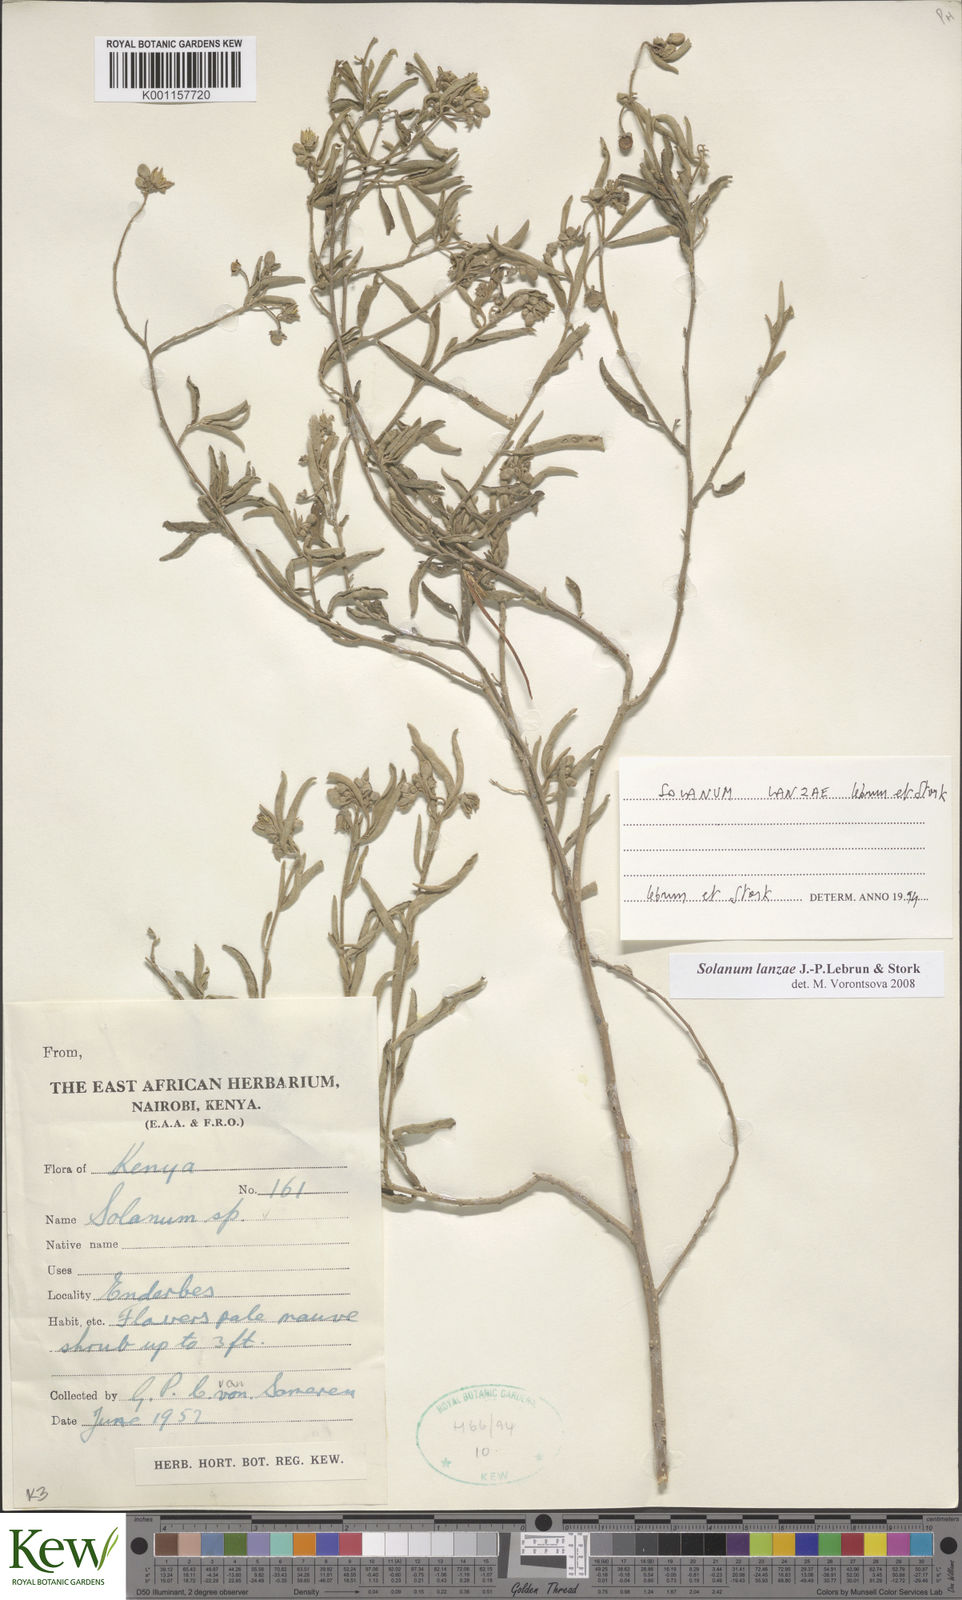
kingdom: Plantae
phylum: Tracheophyta
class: Magnoliopsida
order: Solanales
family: Solanaceae
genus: Solanum
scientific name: Solanum lanzae
